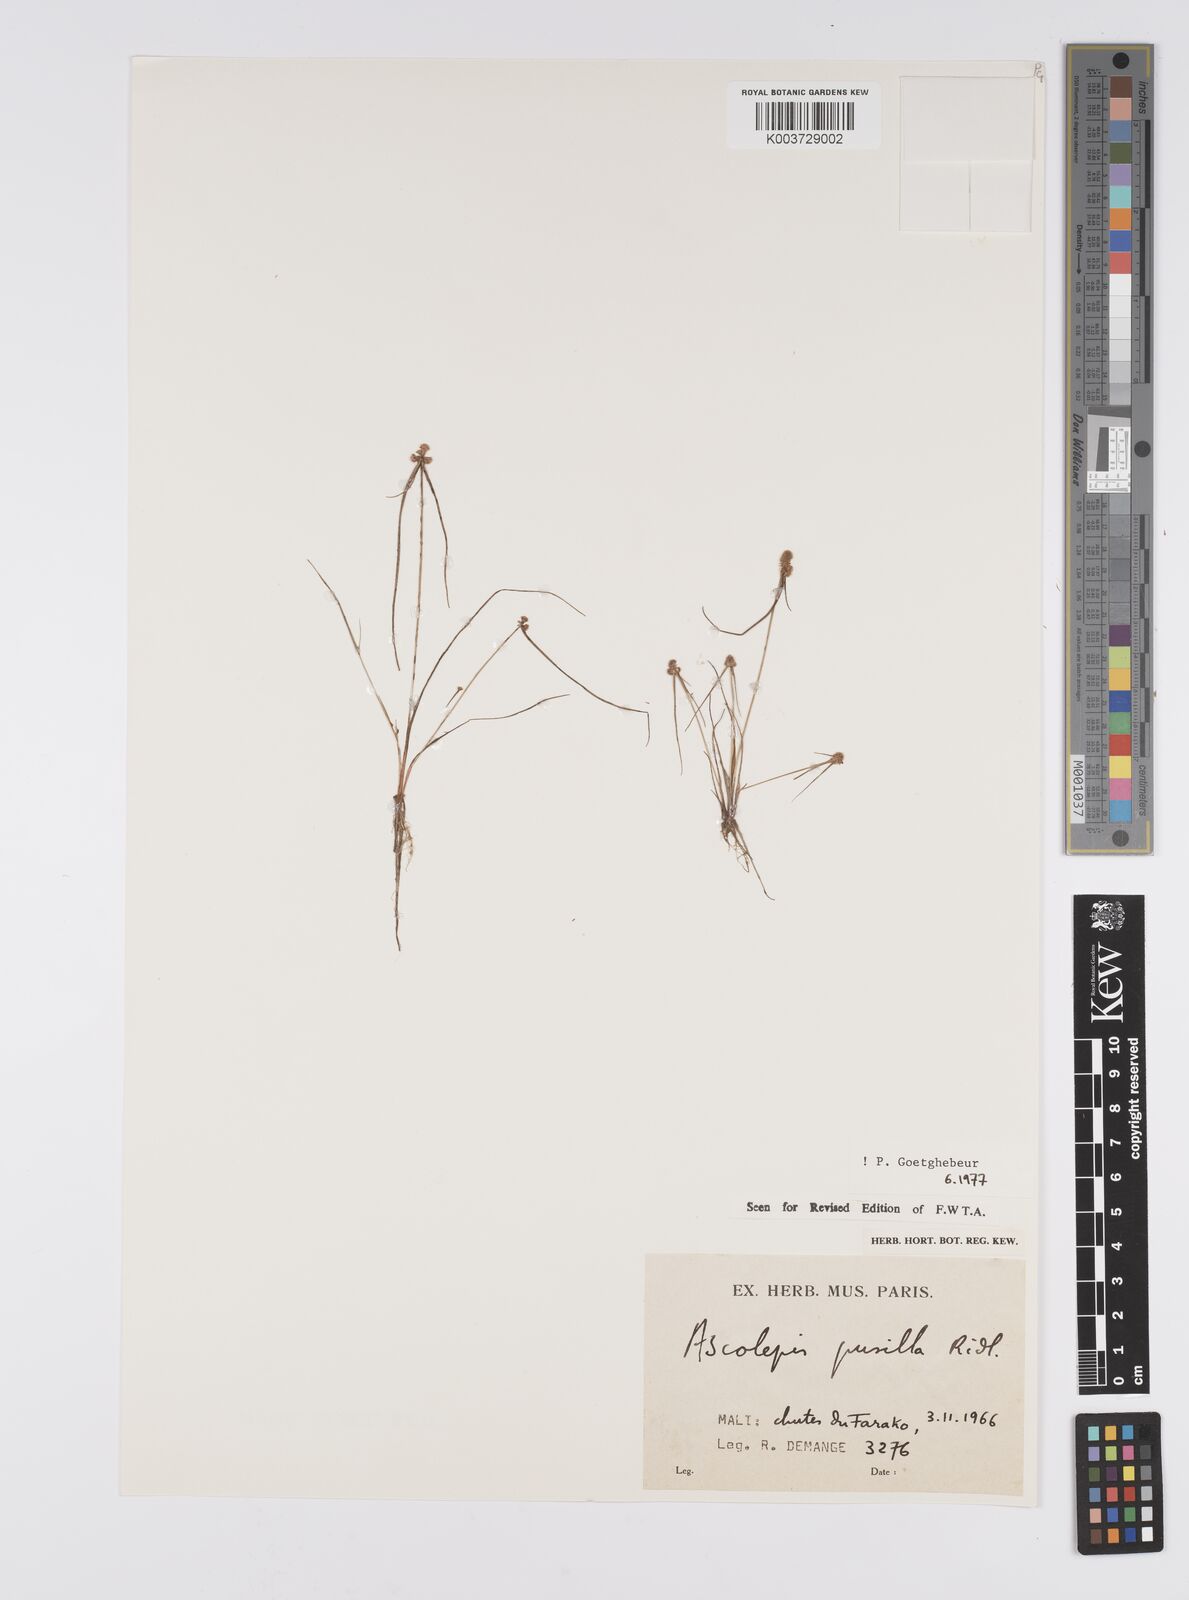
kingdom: Plantae
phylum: Tracheophyta
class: Liliopsida
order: Poales
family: Cyperaceae
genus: Ascolepis
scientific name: Ascolepis
